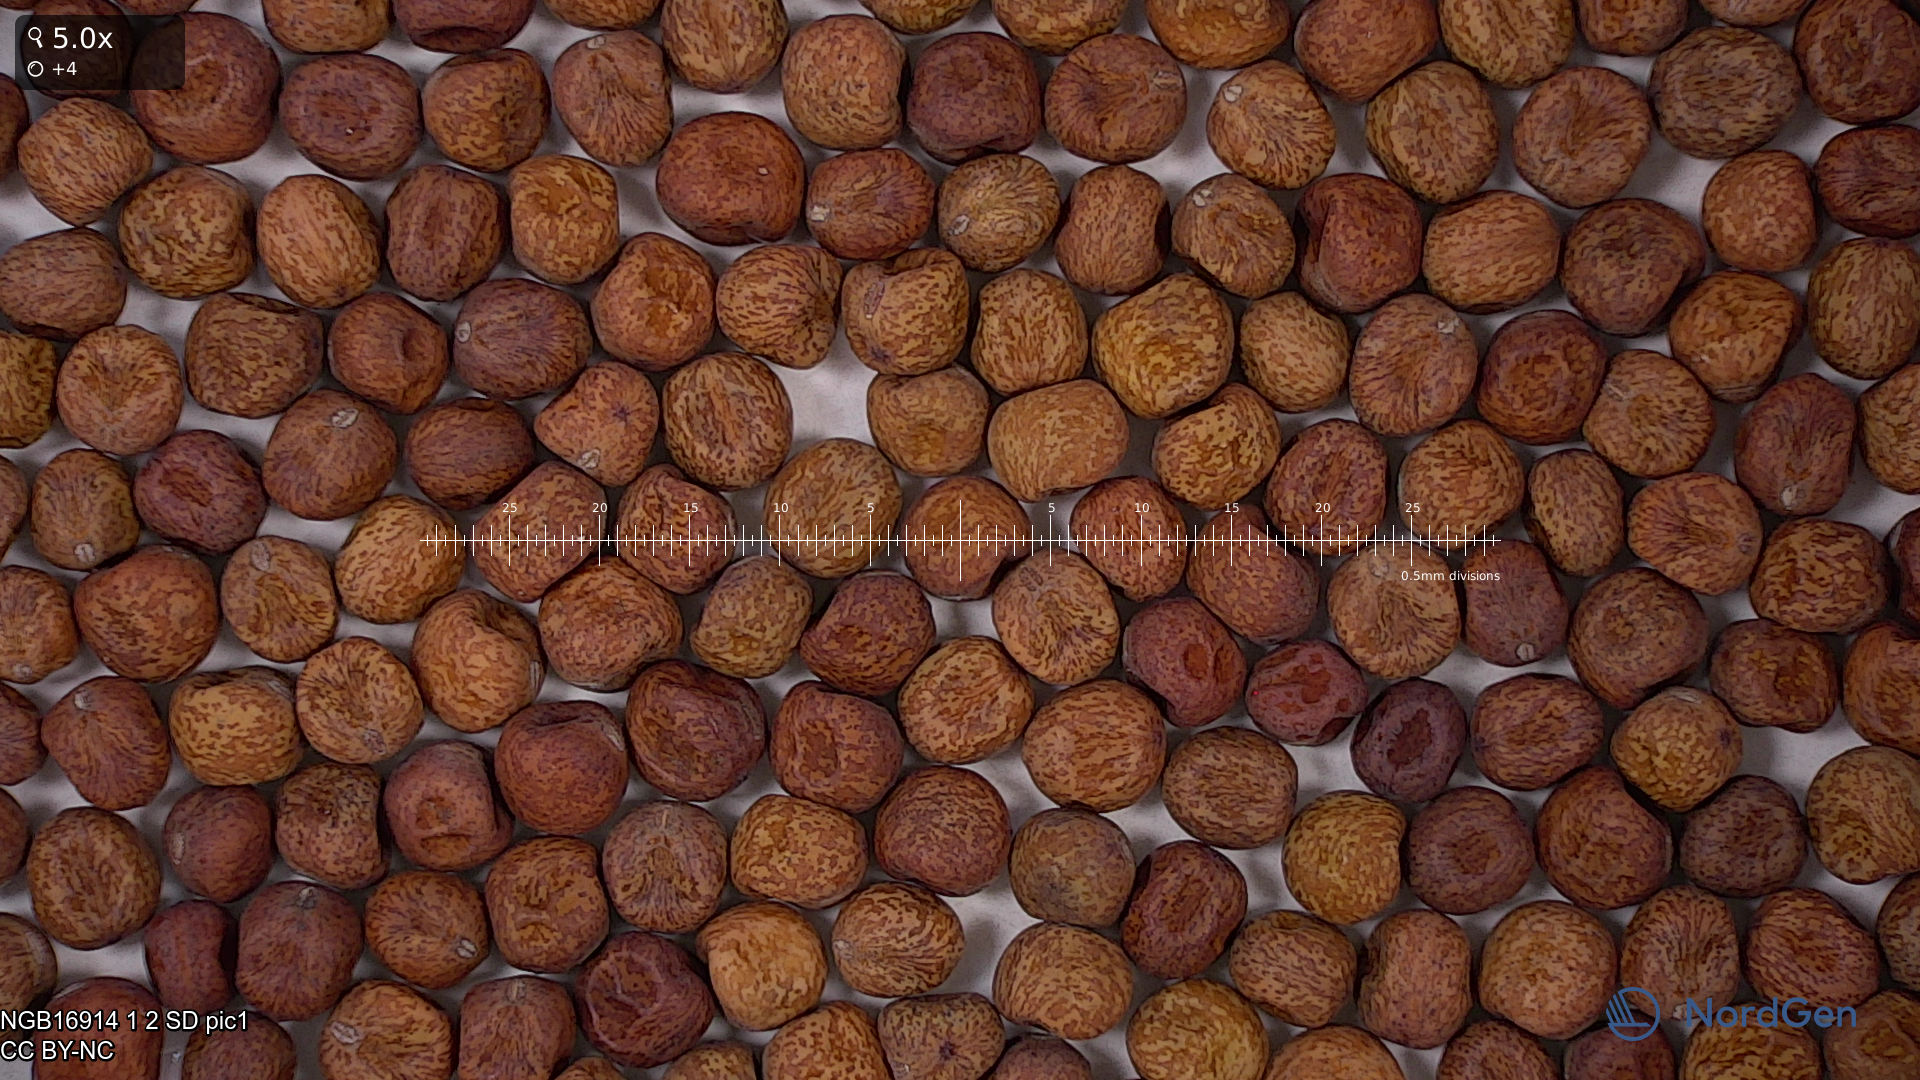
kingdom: Plantae
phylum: Tracheophyta
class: Magnoliopsida
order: Fabales
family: Fabaceae
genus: Lathyrus
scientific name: Lathyrus oleraceus
